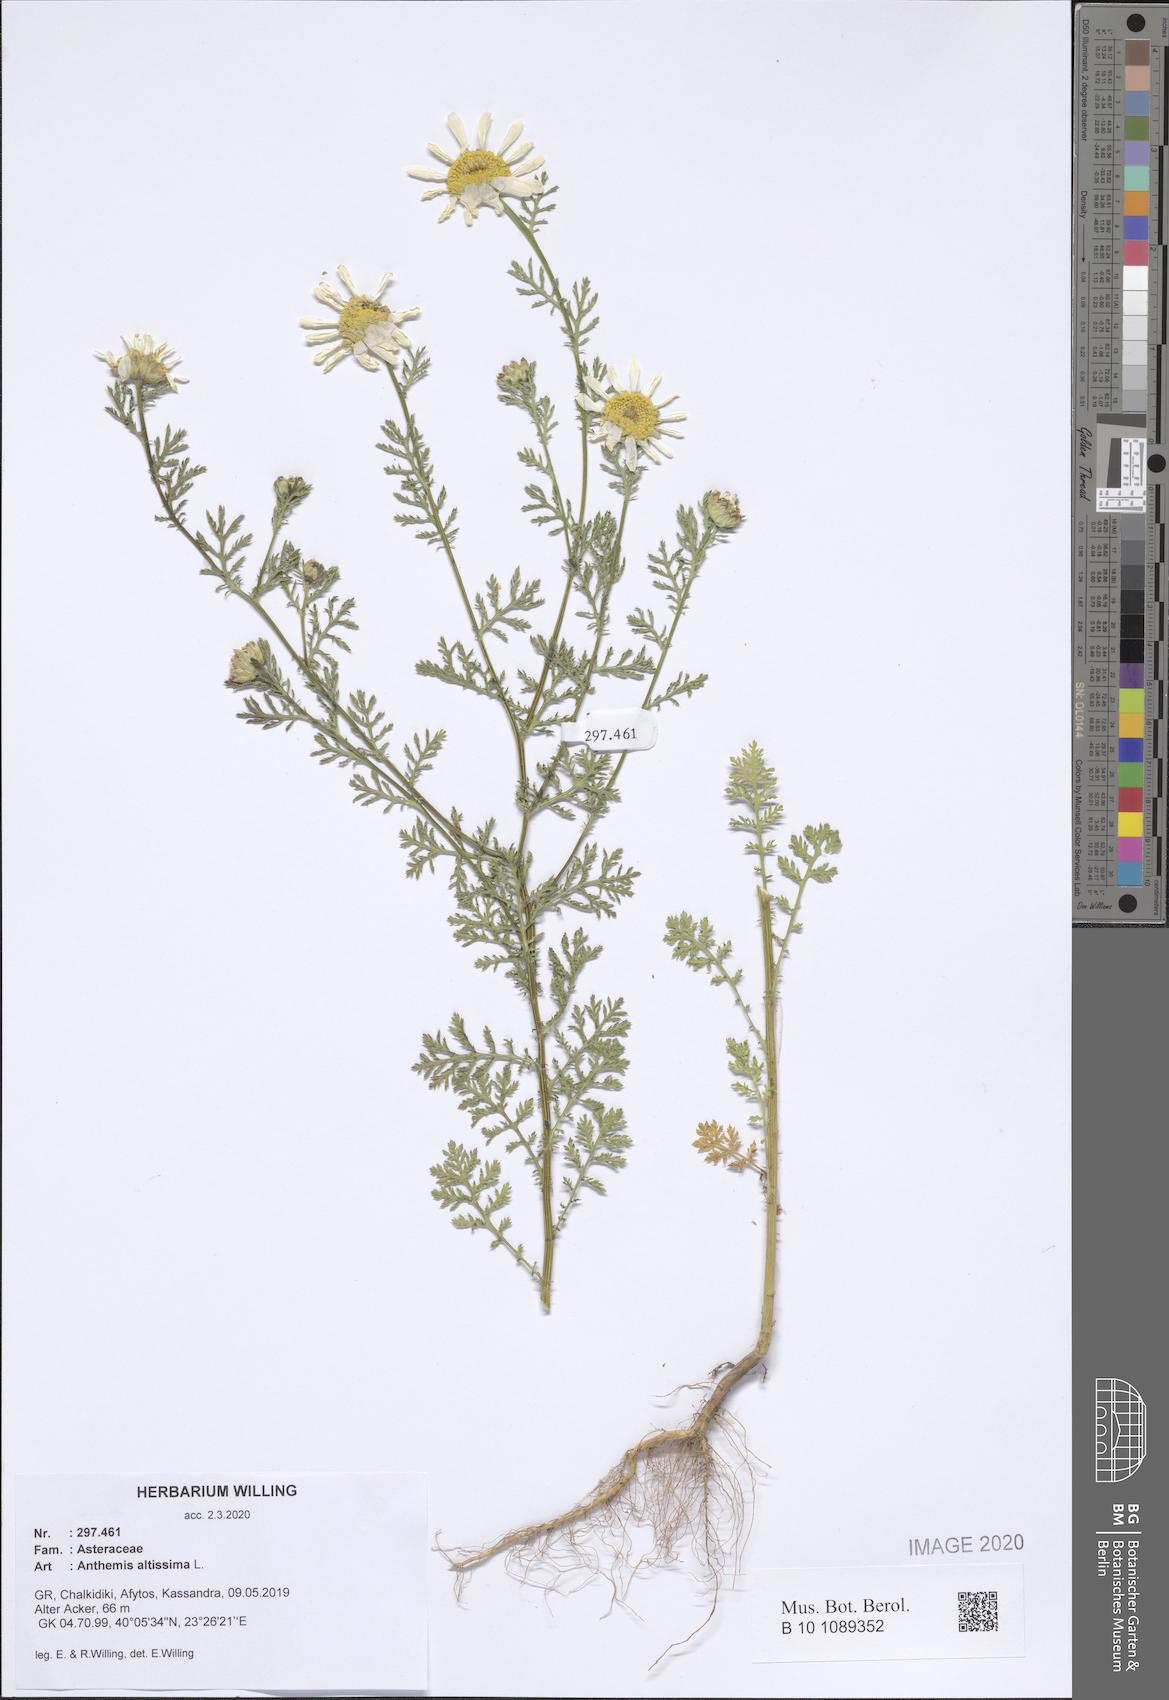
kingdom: Plantae
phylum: Tracheophyta
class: Magnoliopsida
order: Asterales
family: Asteraceae
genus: Cota
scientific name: Cota altissima
